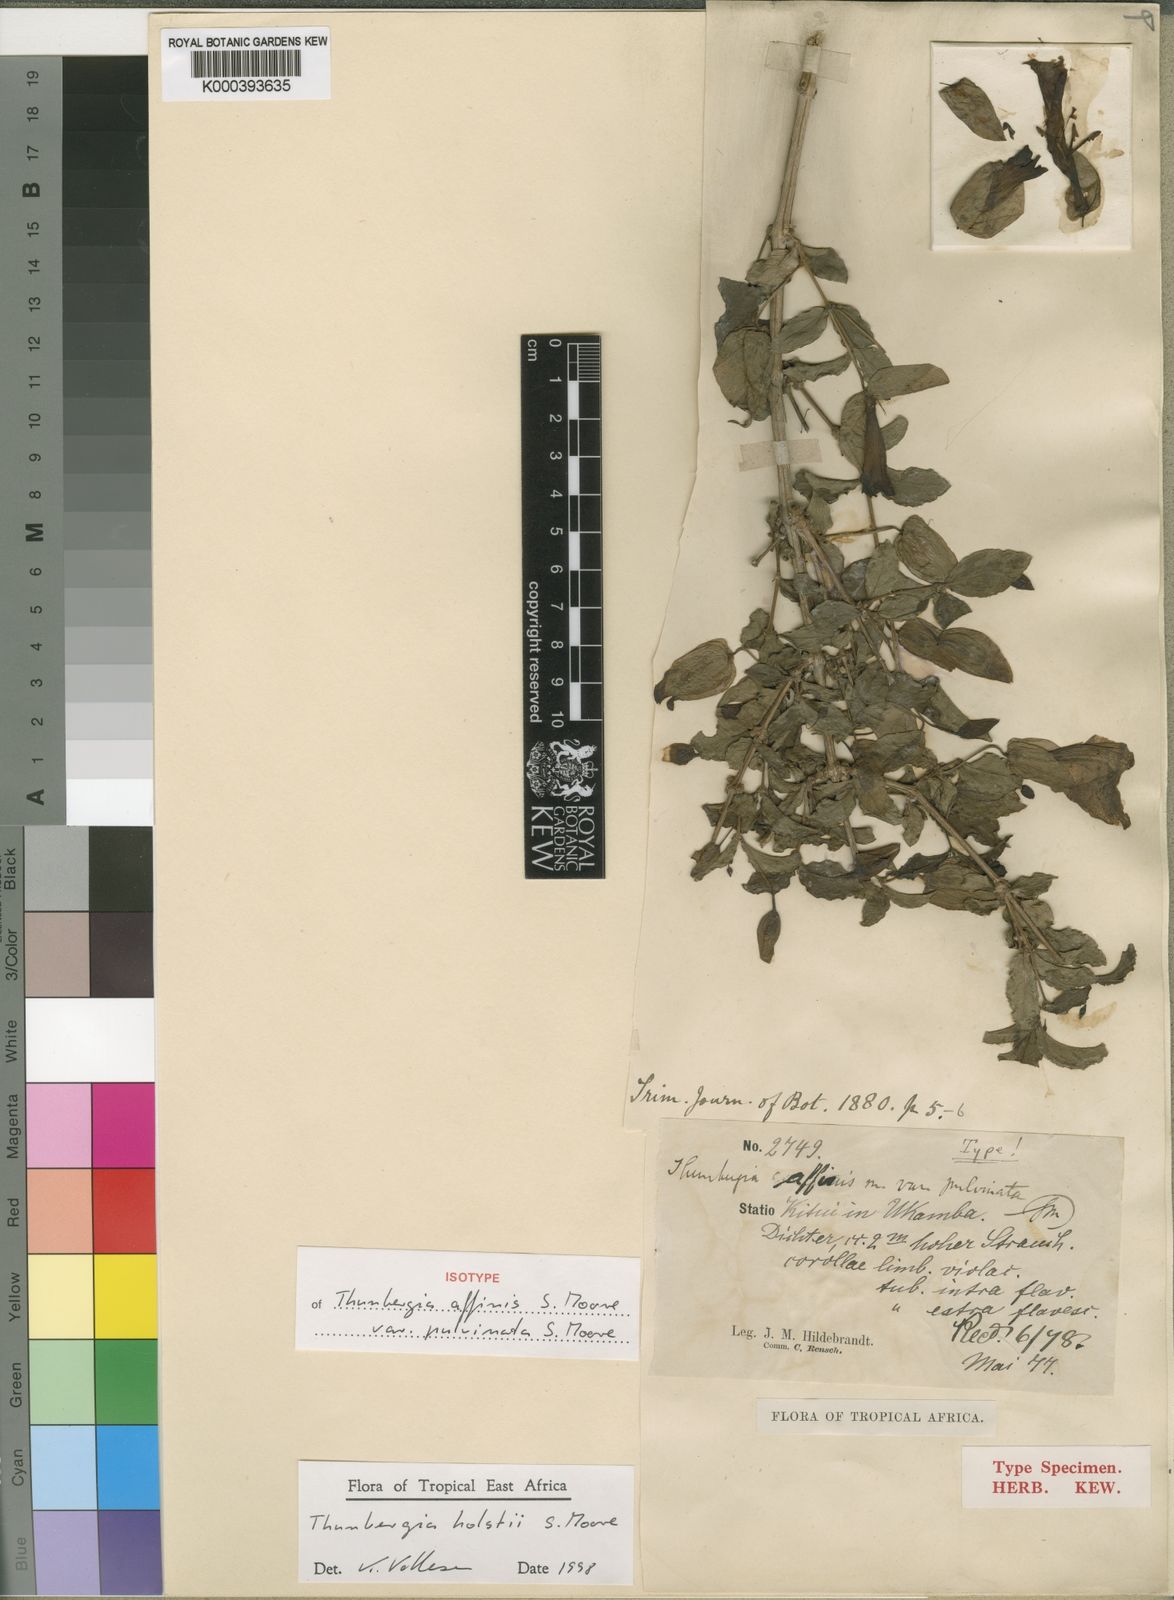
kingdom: Plantae
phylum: Tracheophyta
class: Magnoliopsida
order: Lamiales
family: Acanthaceae
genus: Thunbergia
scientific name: Thunbergia affinis
